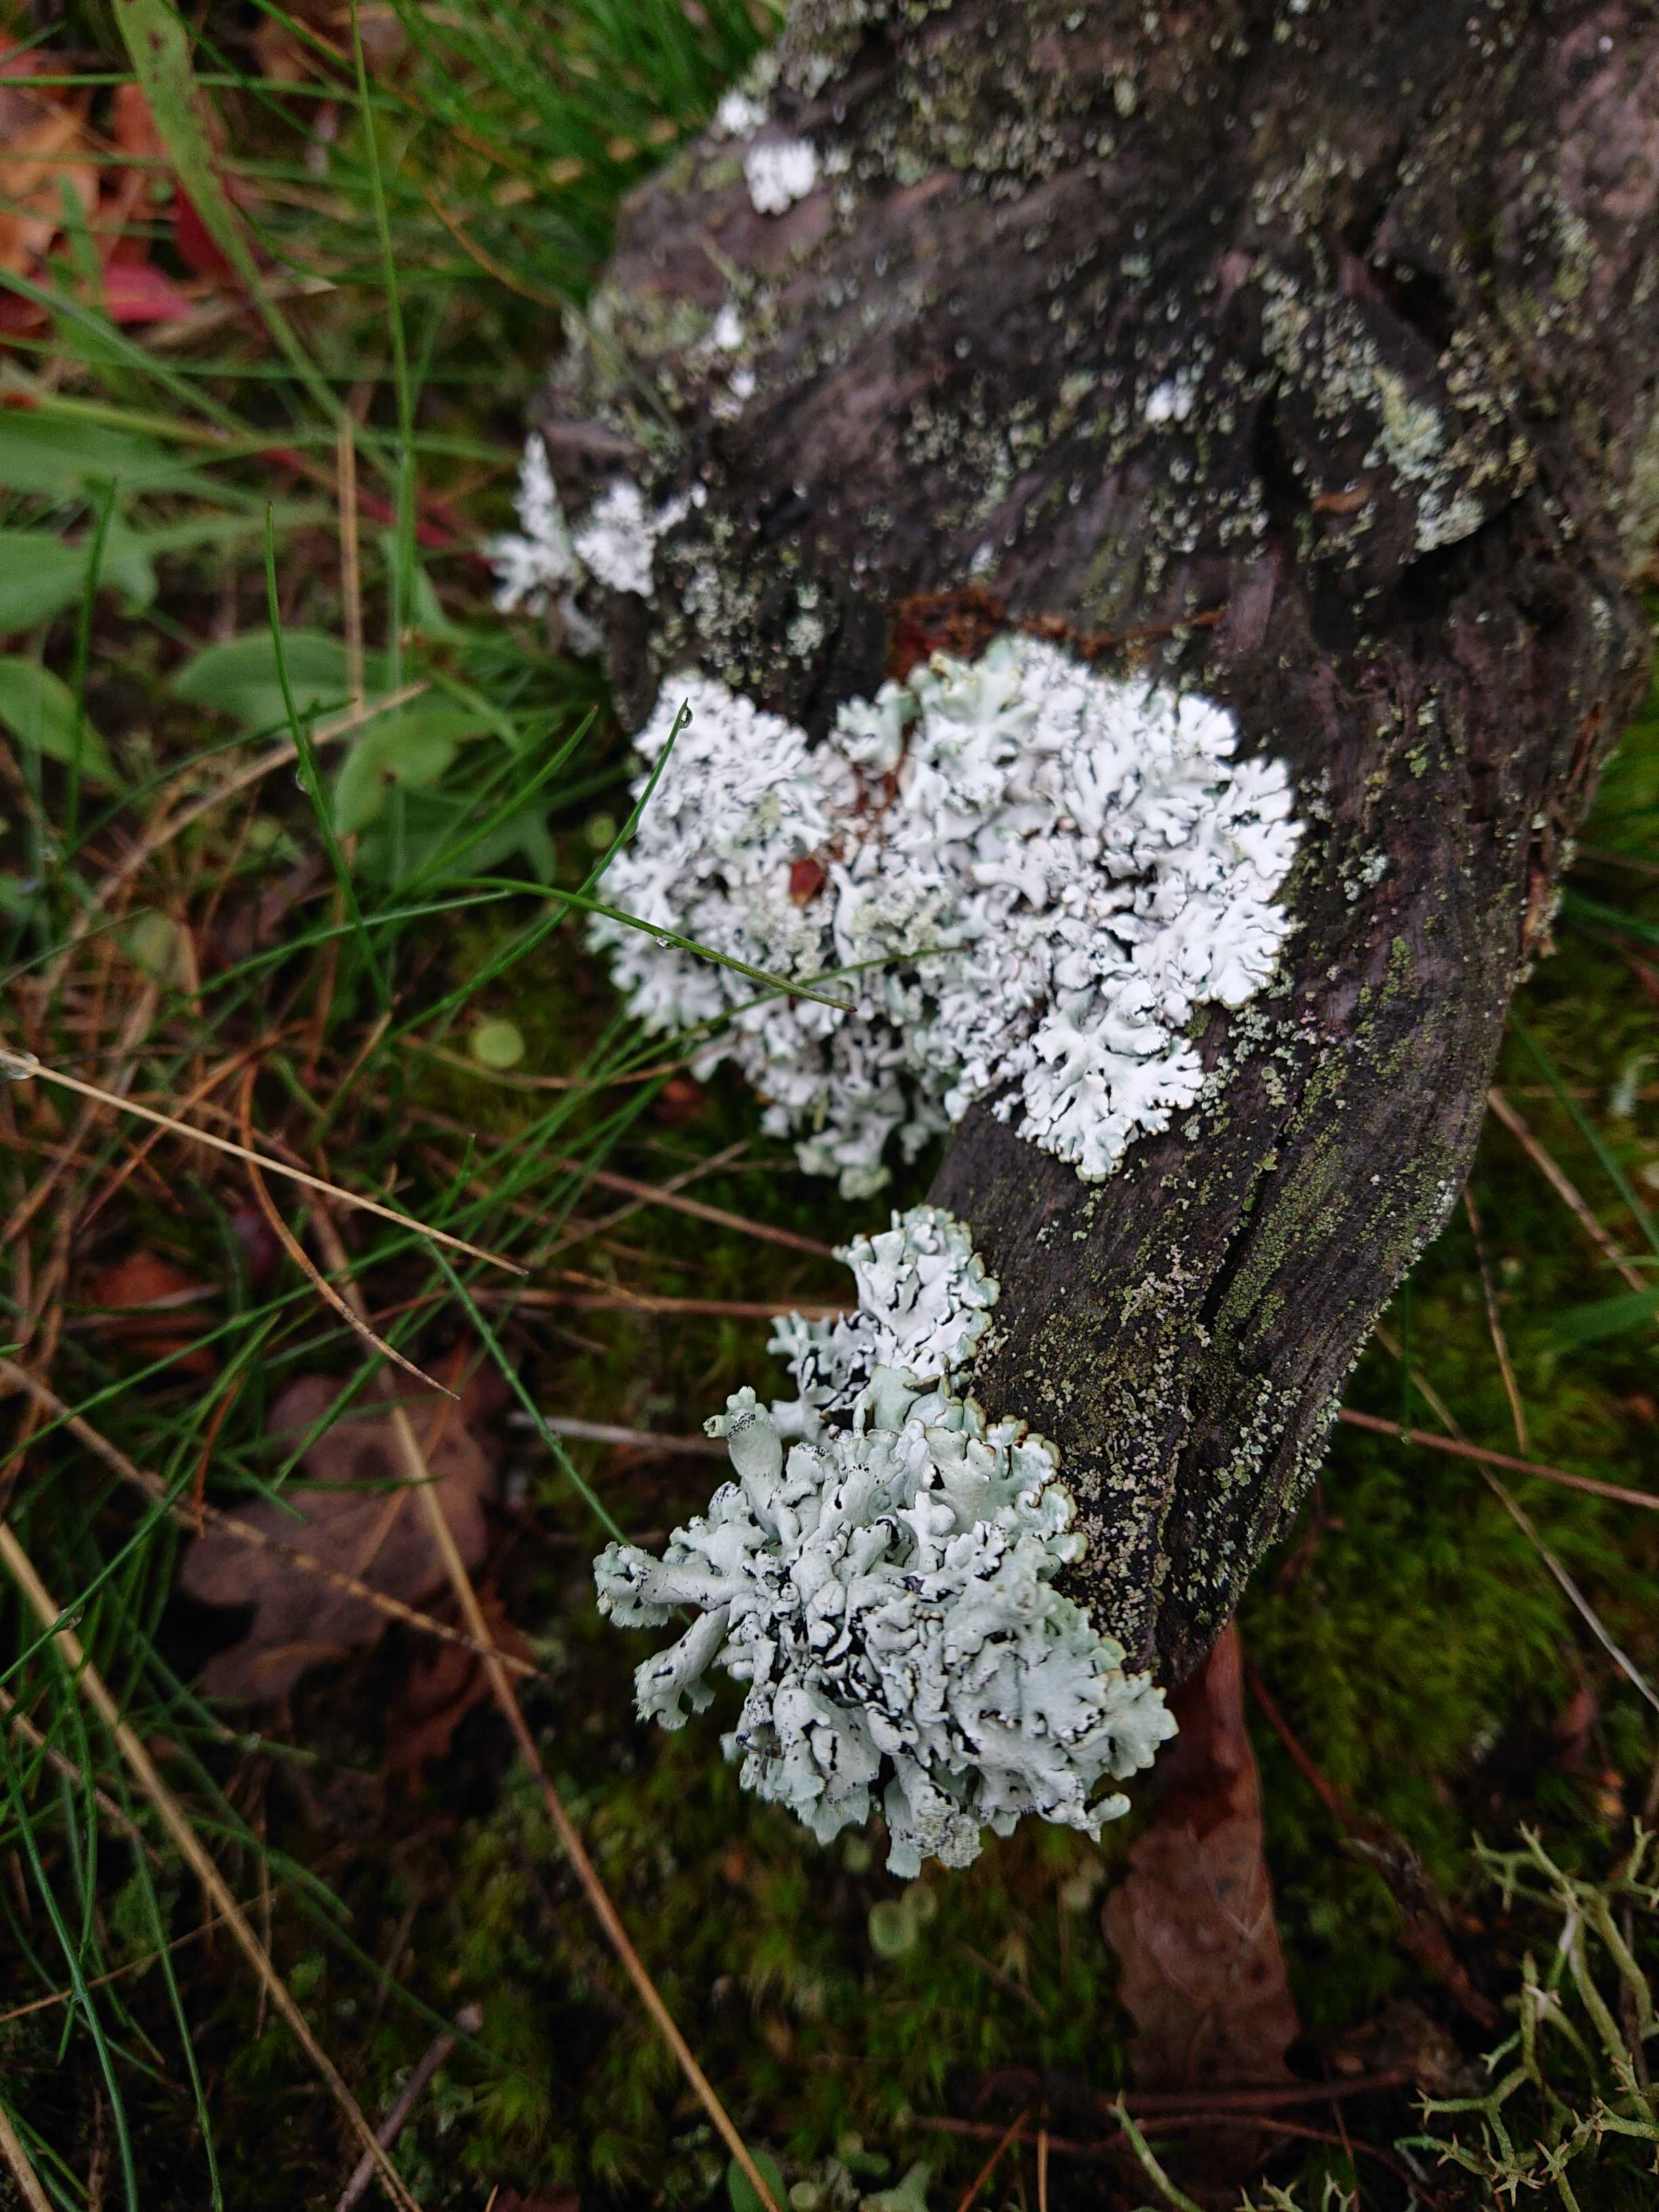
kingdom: Fungi
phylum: Ascomycota
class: Lecanoromycetes
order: Lecanorales
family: Parmeliaceae
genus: Hypogymnia
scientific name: Hypogymnia physodes
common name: almindelig kvistlav
